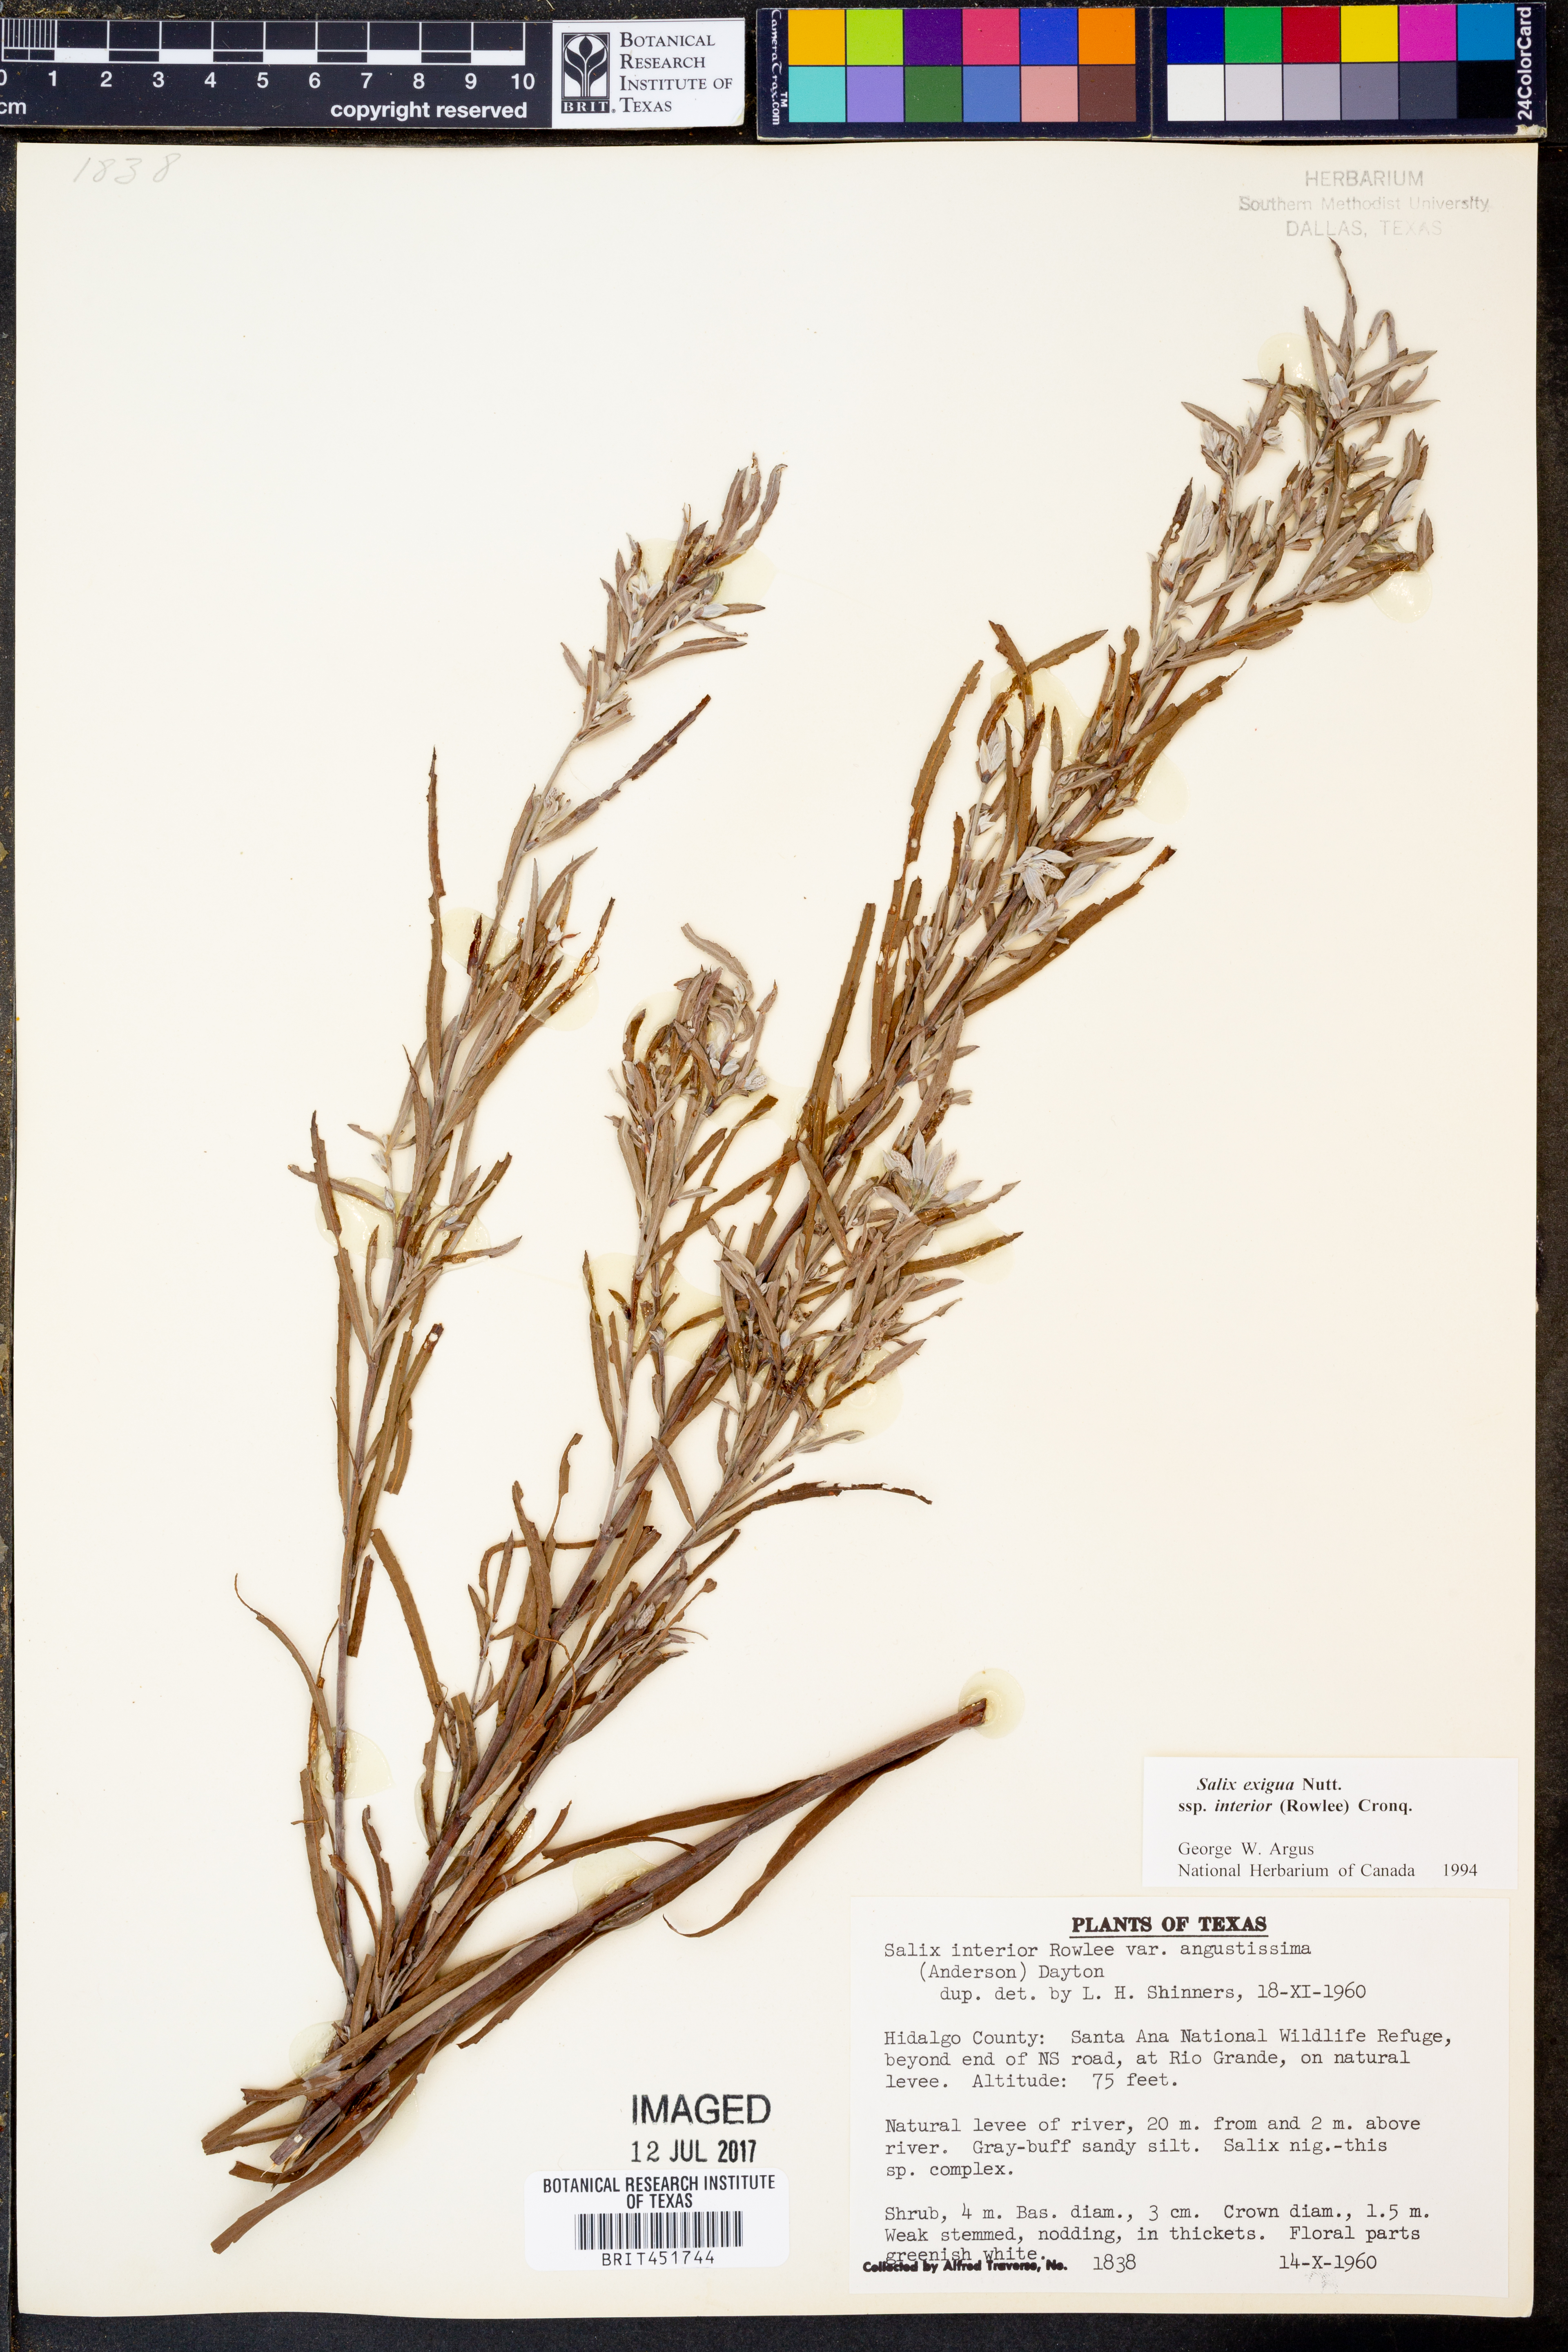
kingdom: Plantae
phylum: Tracheophyta
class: Magnoliopsida
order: Malpighiales
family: Salicaceae
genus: Salix
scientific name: Salix exigua
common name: Coyote willow
